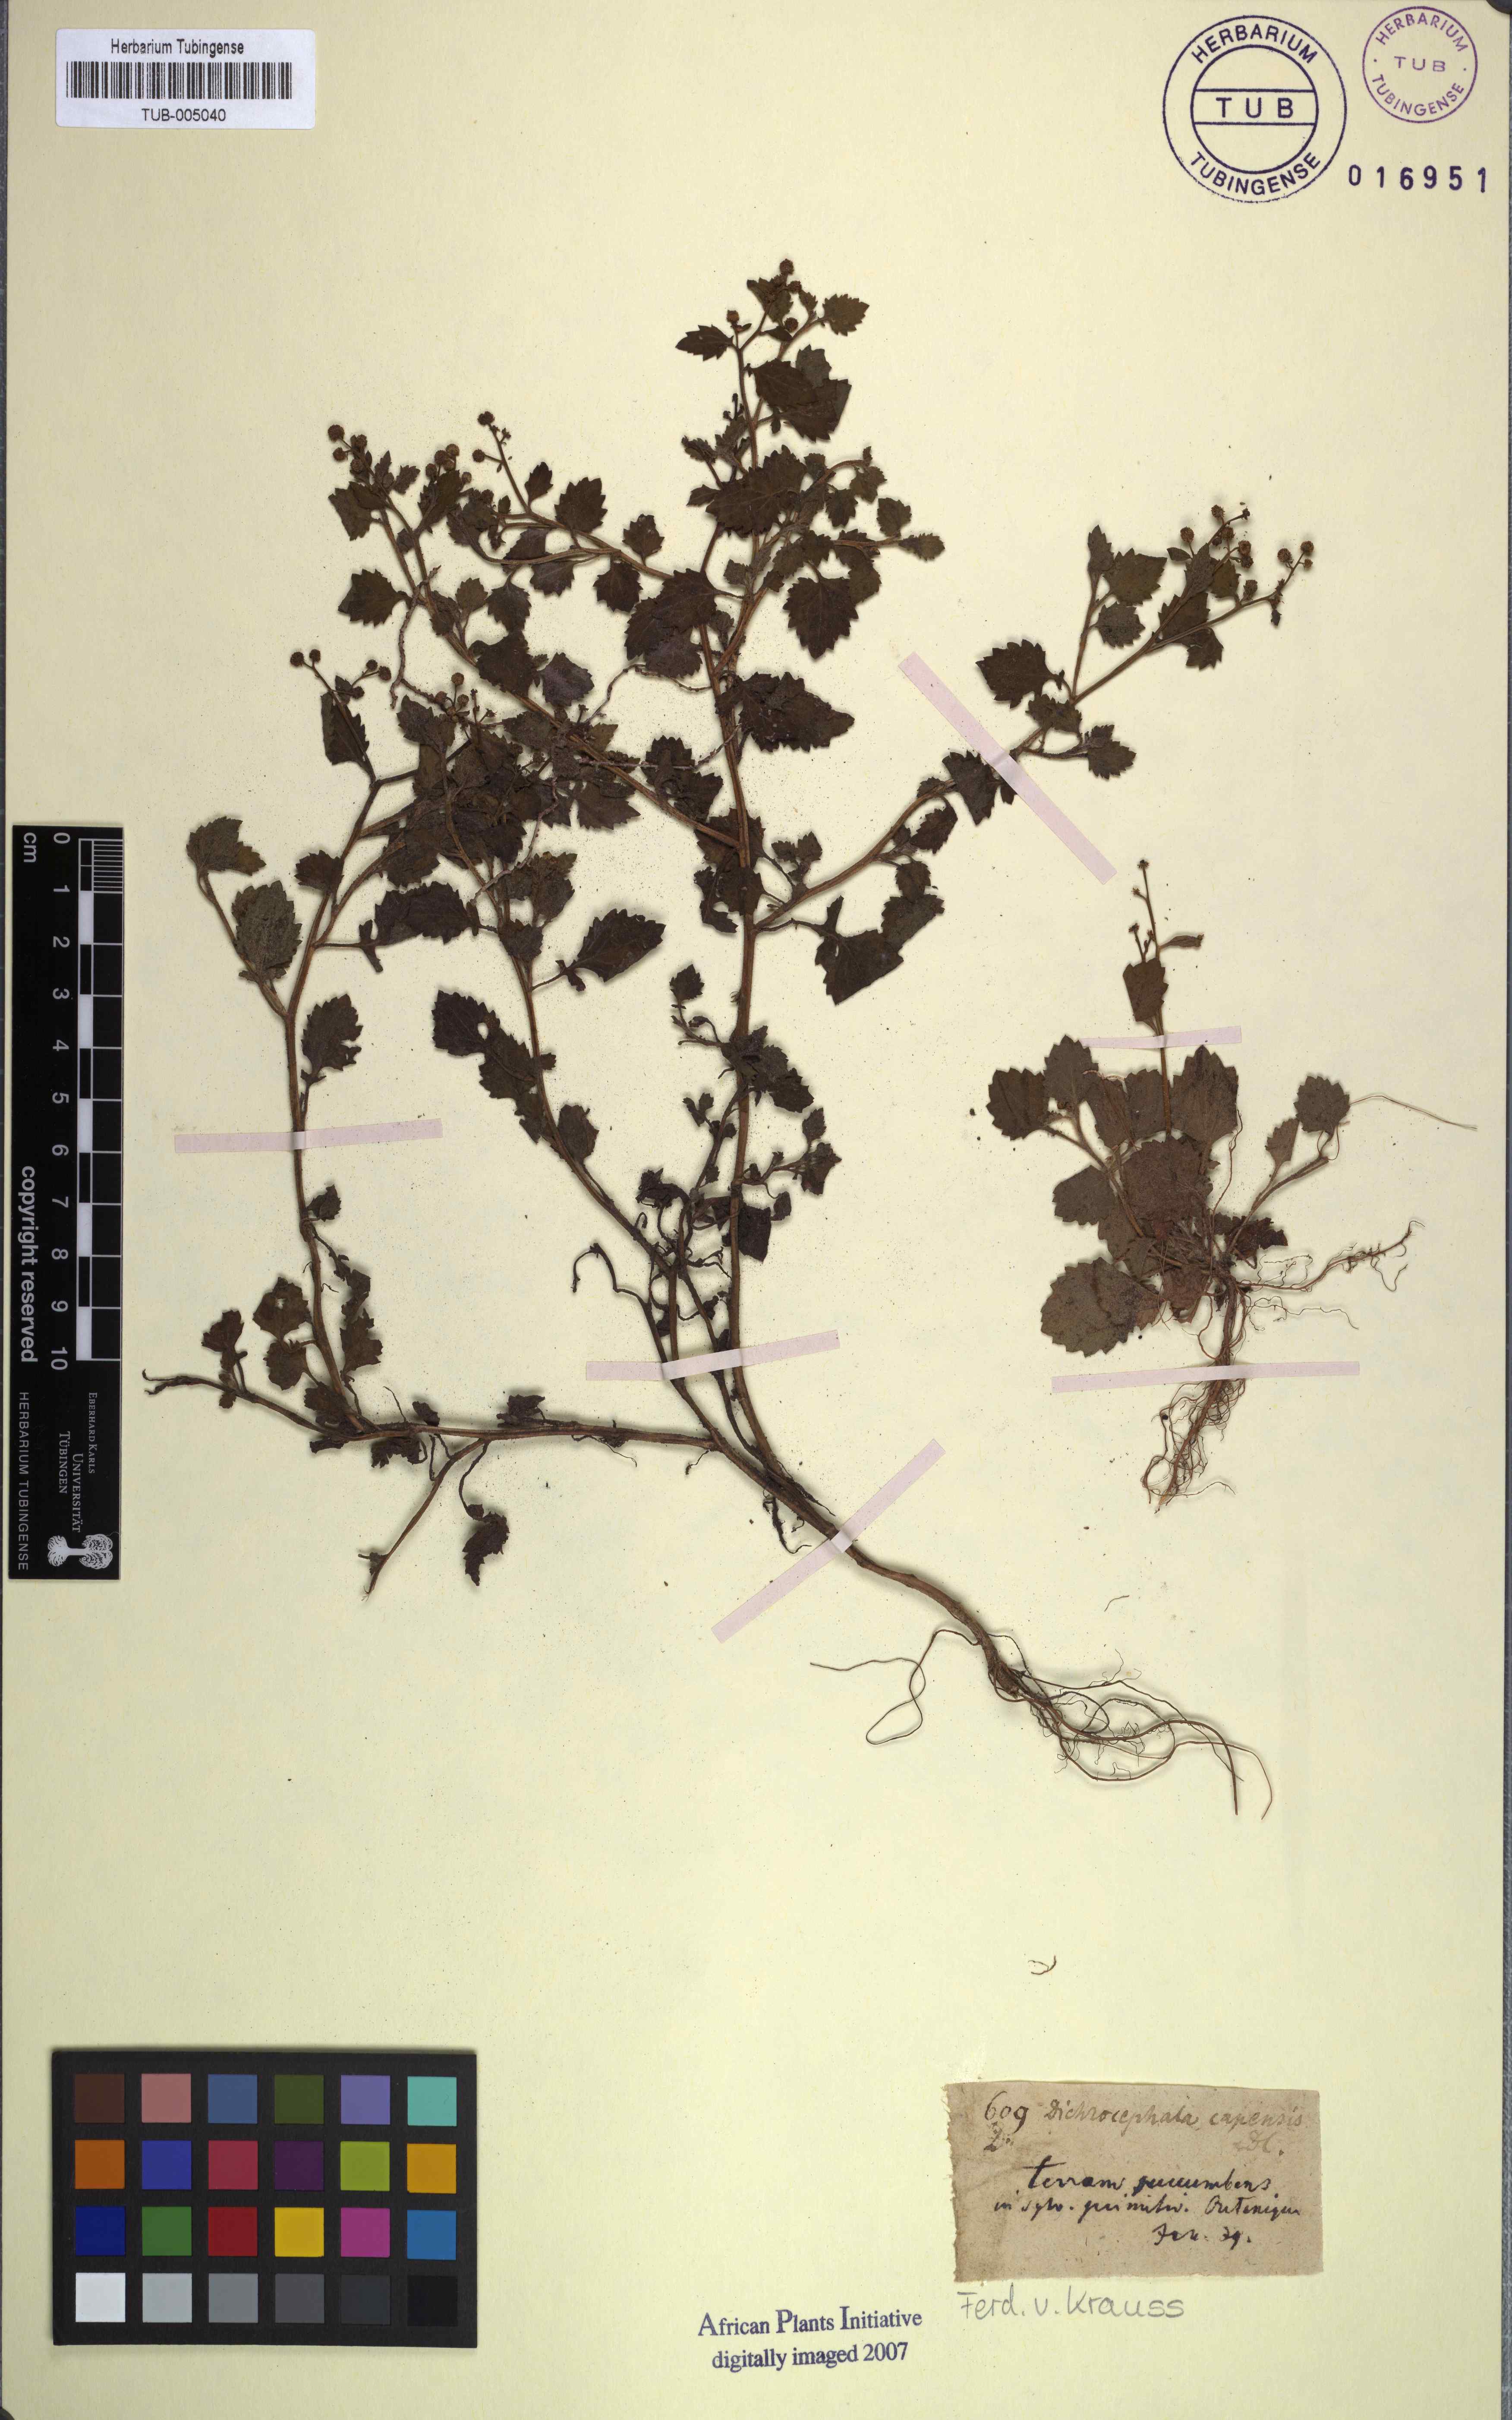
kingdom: Plantae
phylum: Tracheophyta
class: Magnoliopsida
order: Asterales
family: Asteraceae
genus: Dichrocephala
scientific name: Dichrocephala integrifolia
